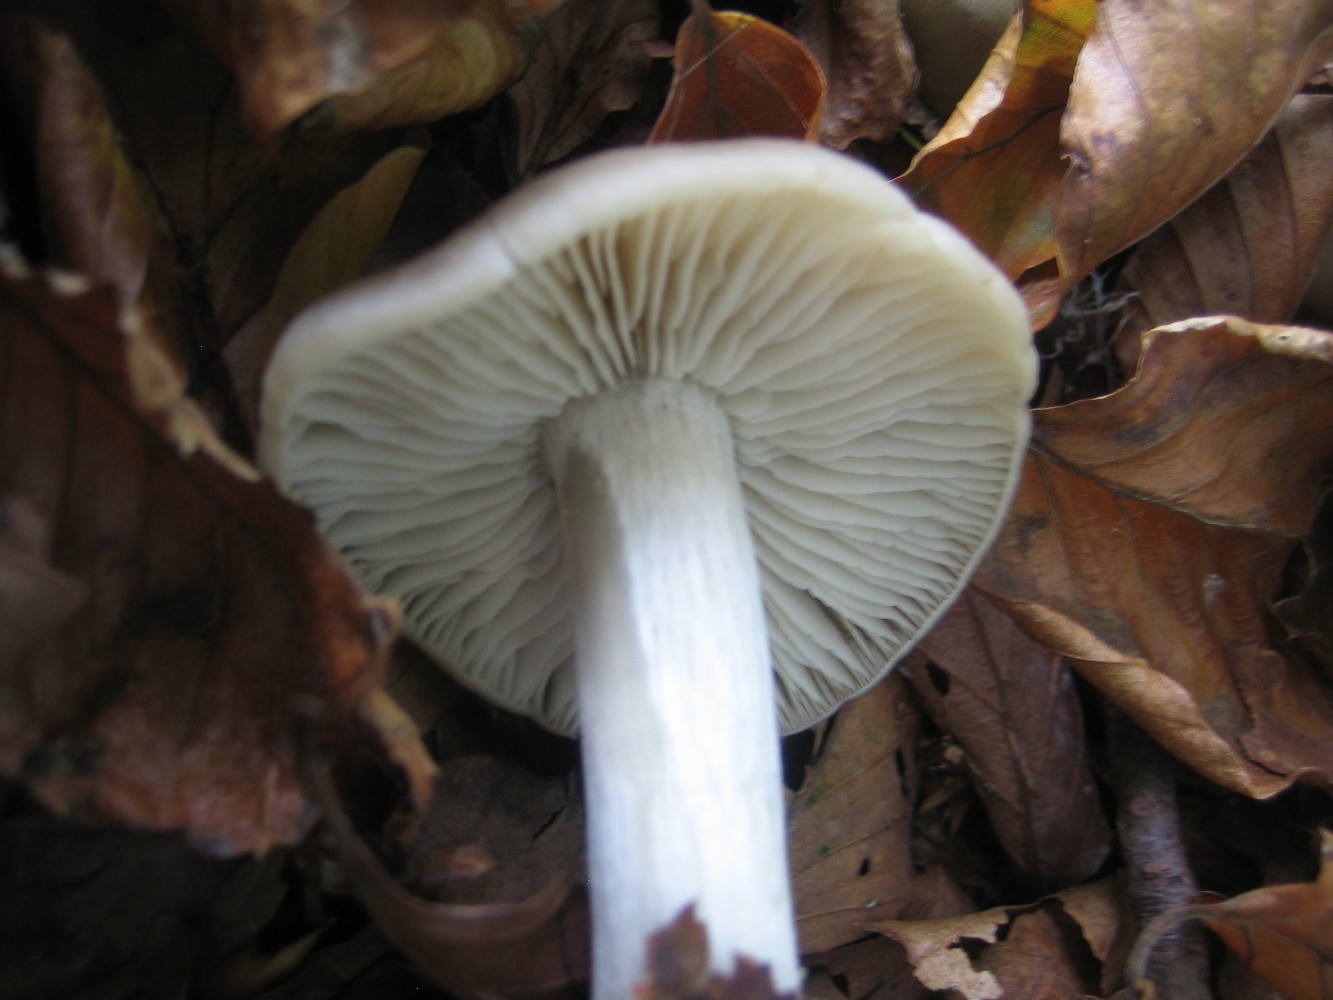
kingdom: Fungi
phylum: Basidiomycota
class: Agaricomycetes
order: Agaricales
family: Entolomataceae
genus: Entoloma
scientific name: Entoloma
